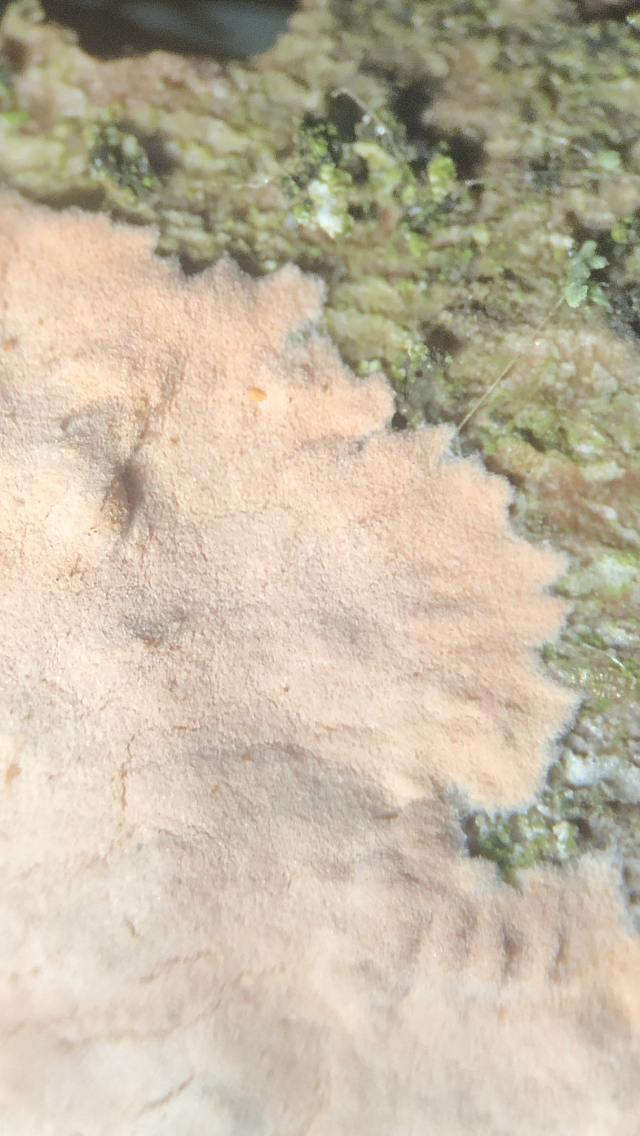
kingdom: Fungi
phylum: Basidiomycota
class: Agaricomycetes
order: Corticiales
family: Corticiaceae
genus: Corticium
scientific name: Corticium roseum
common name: rosa barkskind
